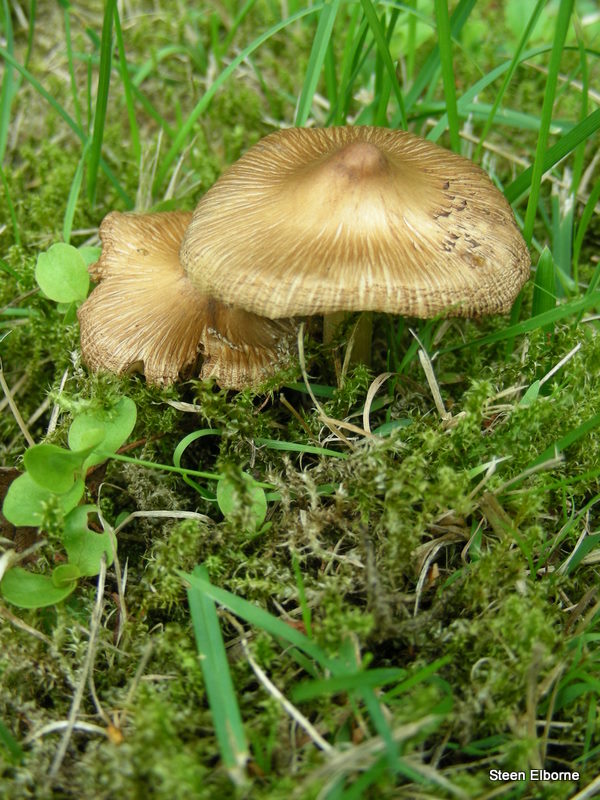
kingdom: Fungi
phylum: Basidiomycota
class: Agaricomycetes
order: Agaricales
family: Inocybaceae
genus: Pseudosperma
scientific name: Pseudosperma rimosum
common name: gulbladet trævlhat
